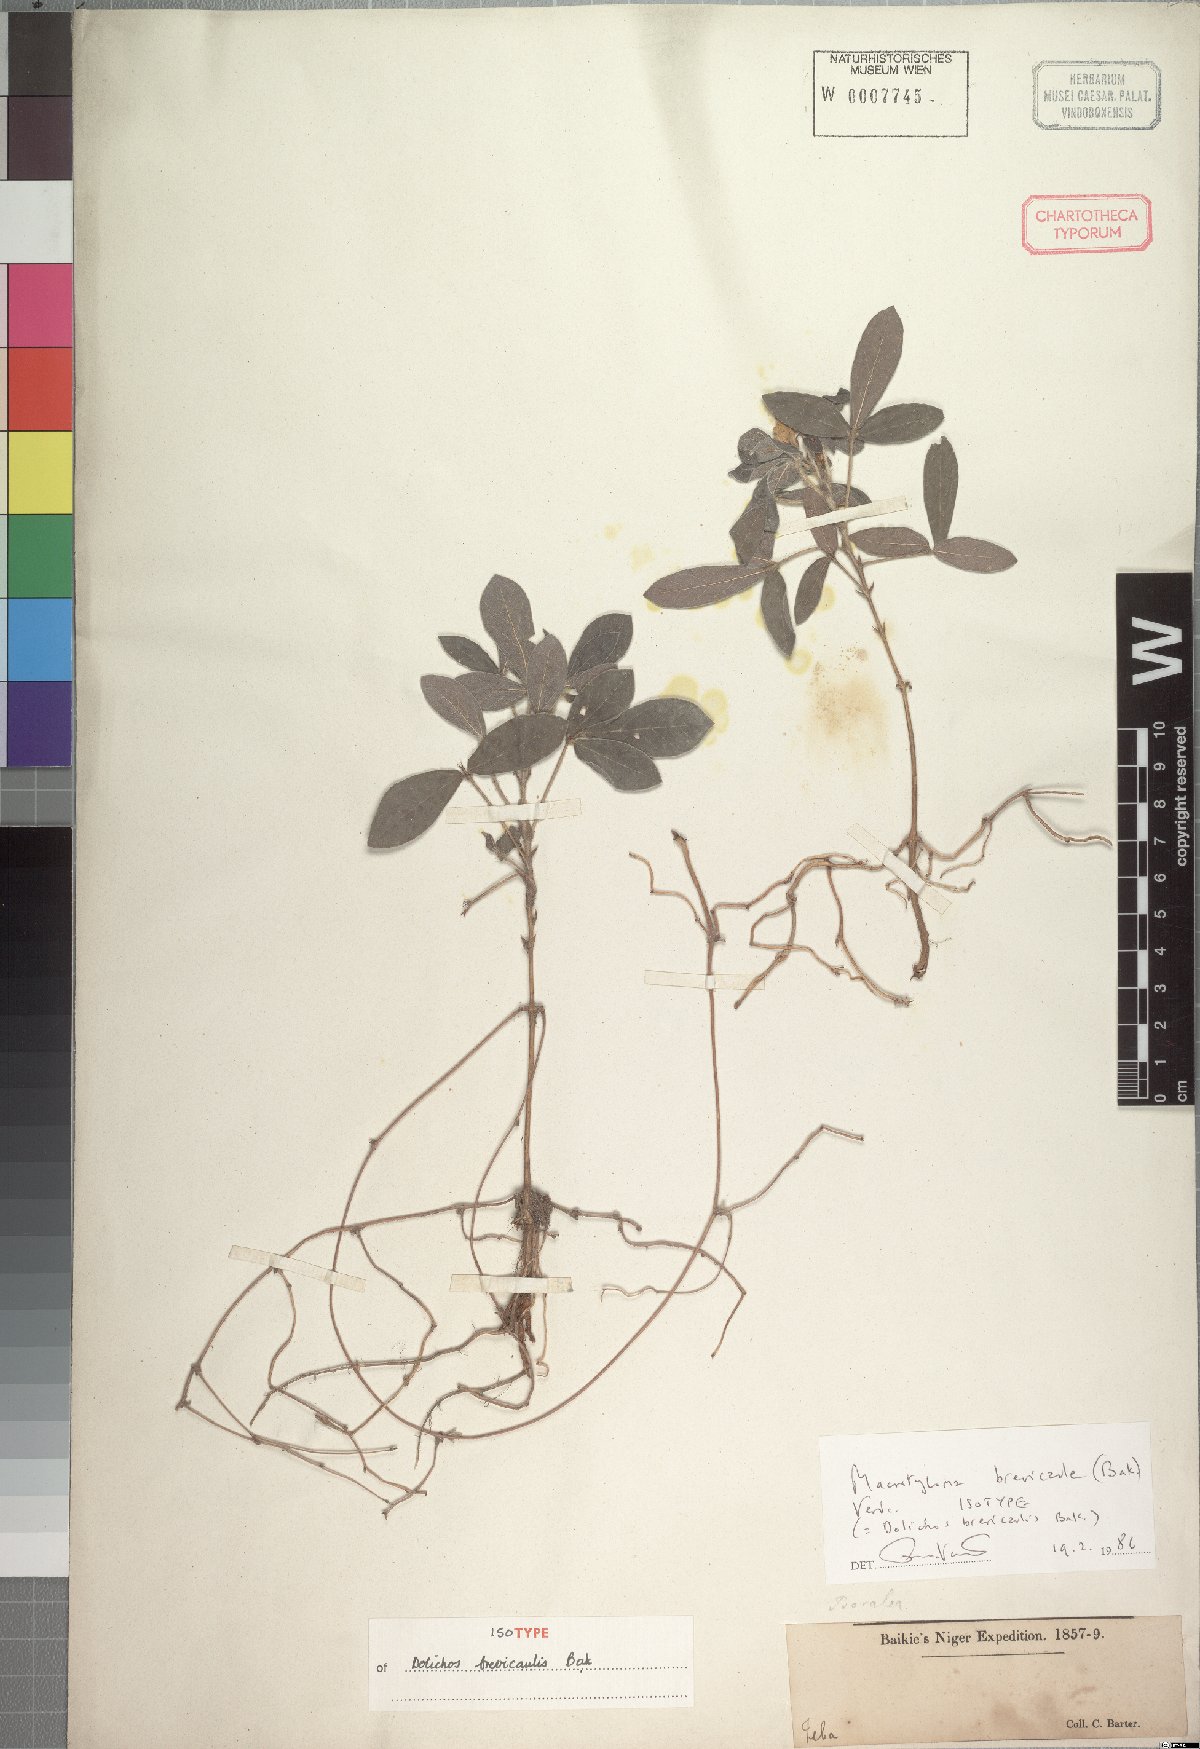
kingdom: Plantae
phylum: Tracheophyta
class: Magnoliopsida
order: Fabales
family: Fabaceae
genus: Macrotyloma
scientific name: Macrotyloma brevicaule
